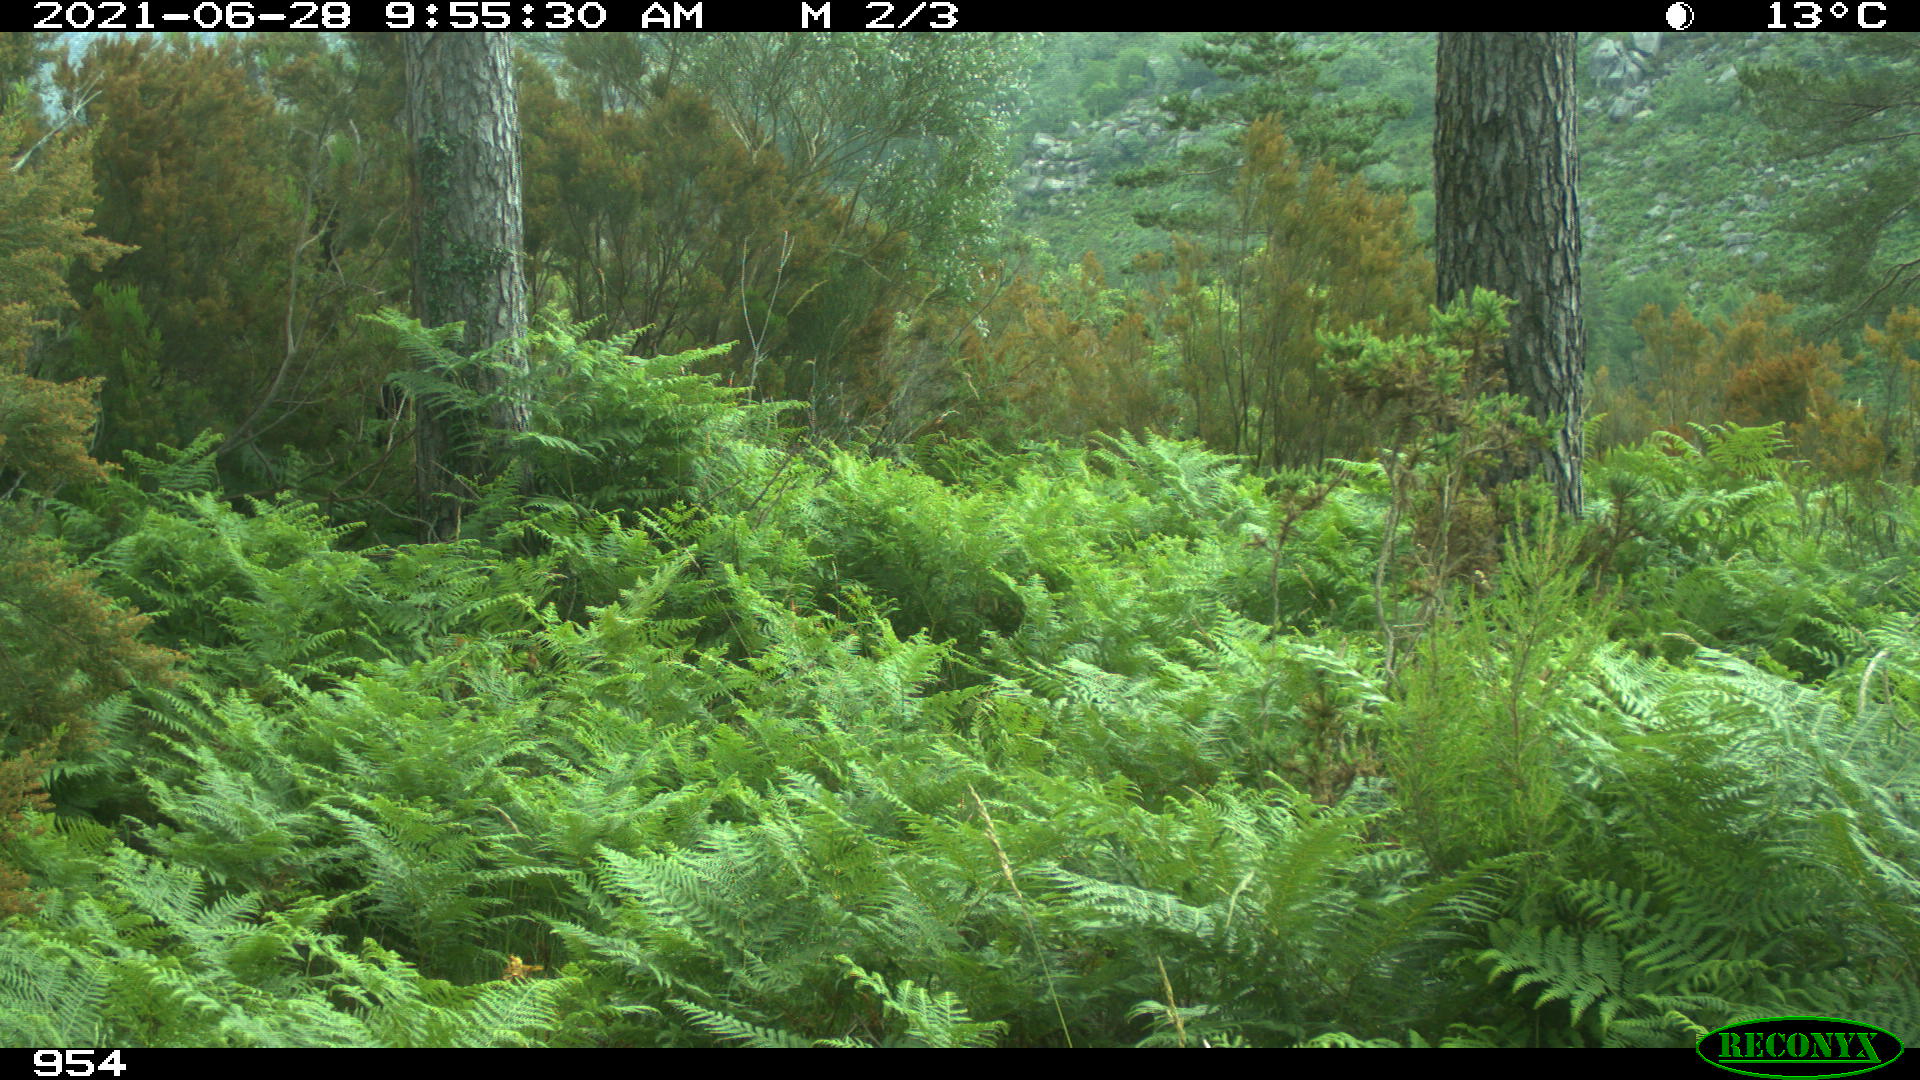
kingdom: Animalia
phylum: Chordata
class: Mammalia
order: Artiodactyla
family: Cervidae
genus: Capreolus
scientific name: Capreolus capreolus
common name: Western roe deer
